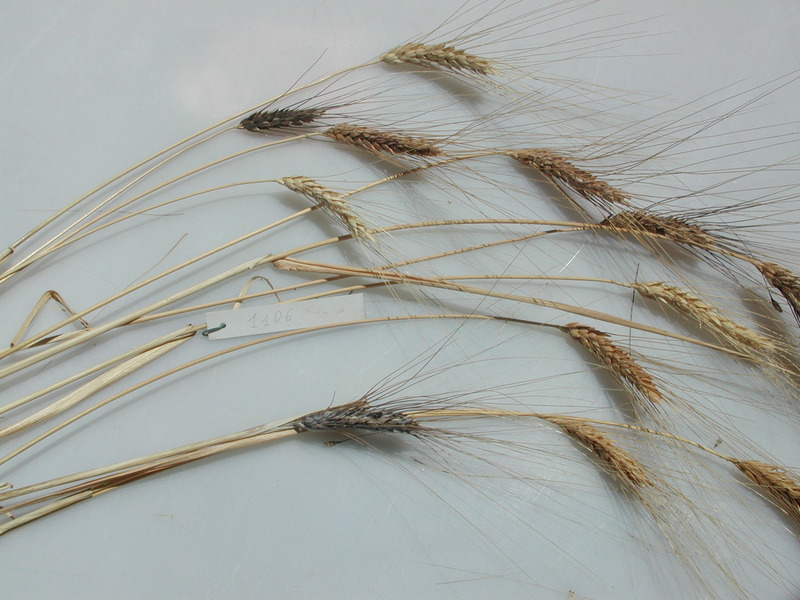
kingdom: Plantae
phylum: Tracheophyta
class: Liliopsida
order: Poales
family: Poaceae
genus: Triticum
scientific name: Triticum turgidum
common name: Wheat
